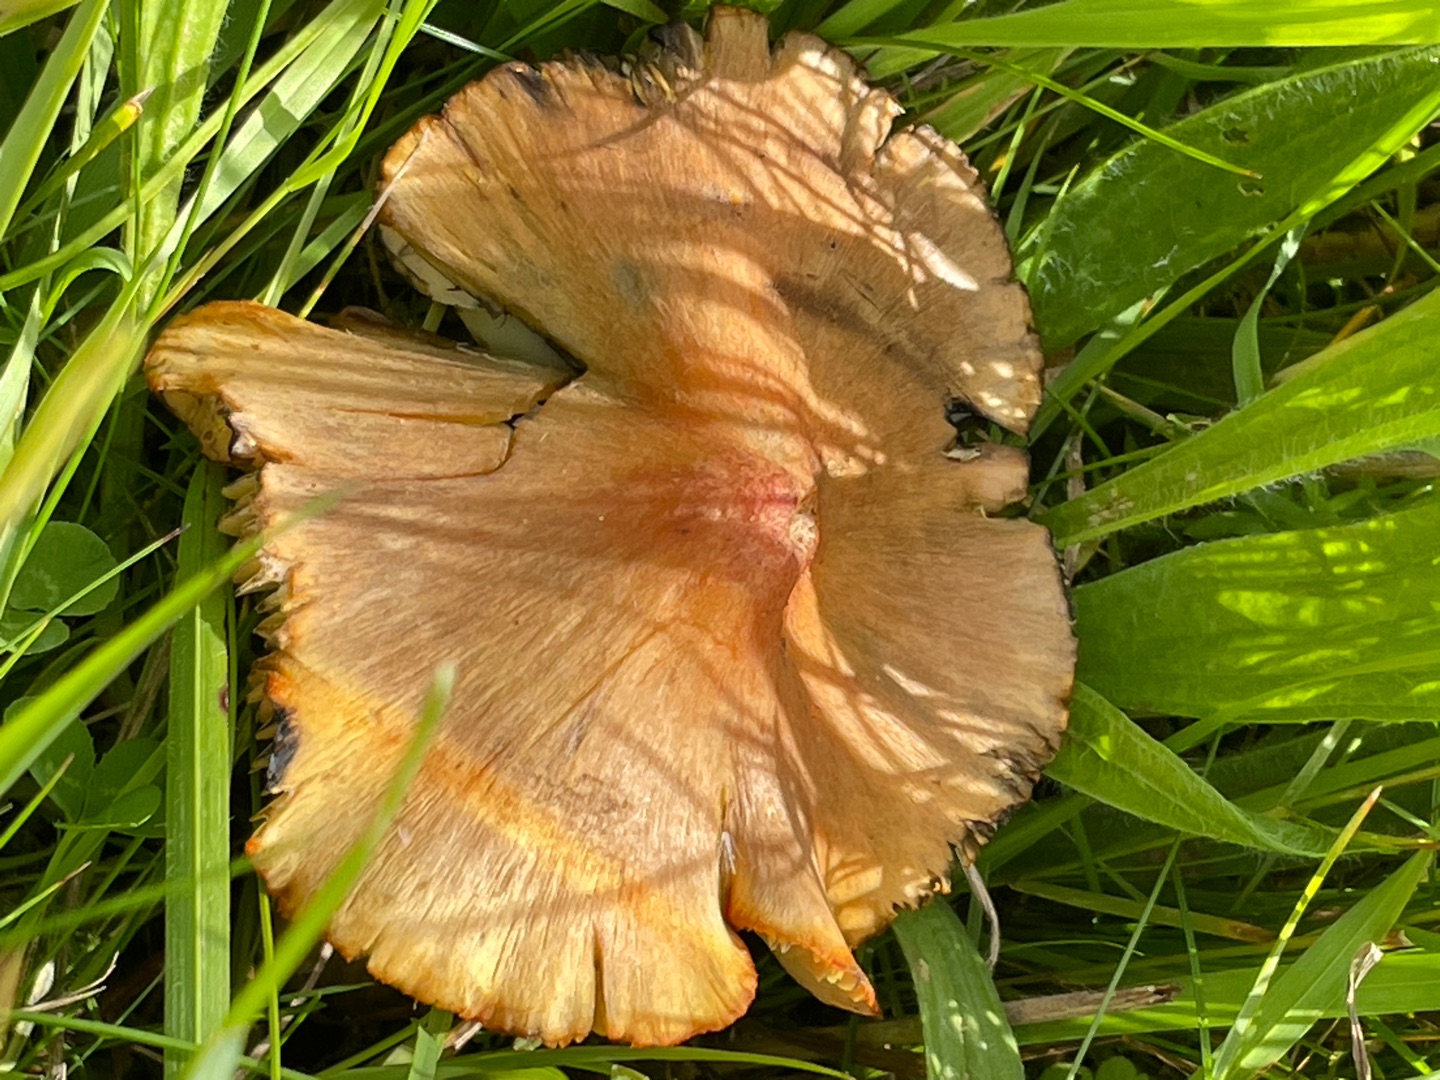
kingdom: Fungi
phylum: Basidiomycota
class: Agaricomycetes
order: Agaricales
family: Hygrophoraceae
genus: Hygrocybe
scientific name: Hygrocybe conica
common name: Kegle-vokshat
